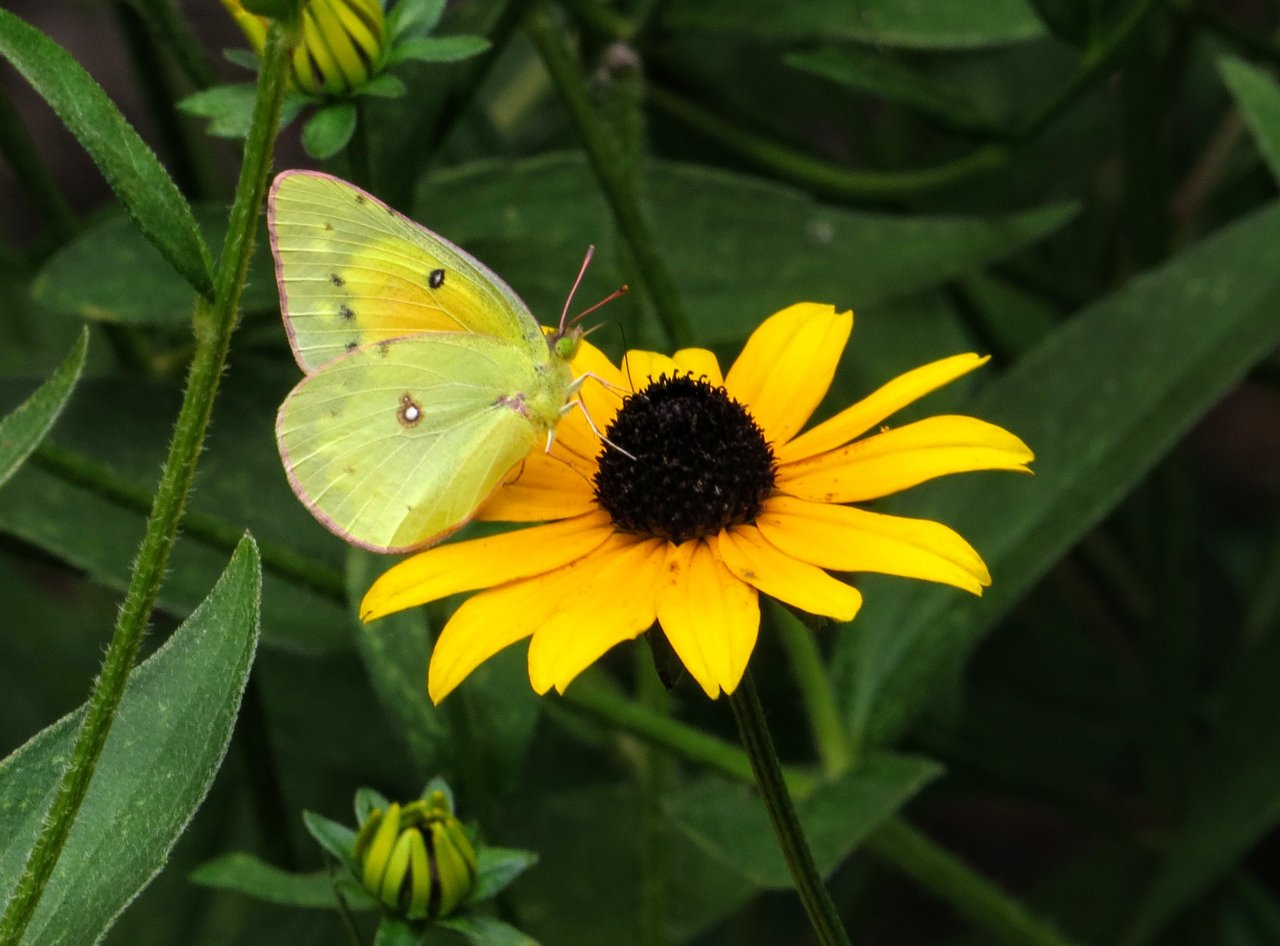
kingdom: Animalia
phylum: Arthropoda
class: Insecta
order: Lepidoptera
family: Pieridae
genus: Colias
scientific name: Colias eurytheme
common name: Orange Sulphur
